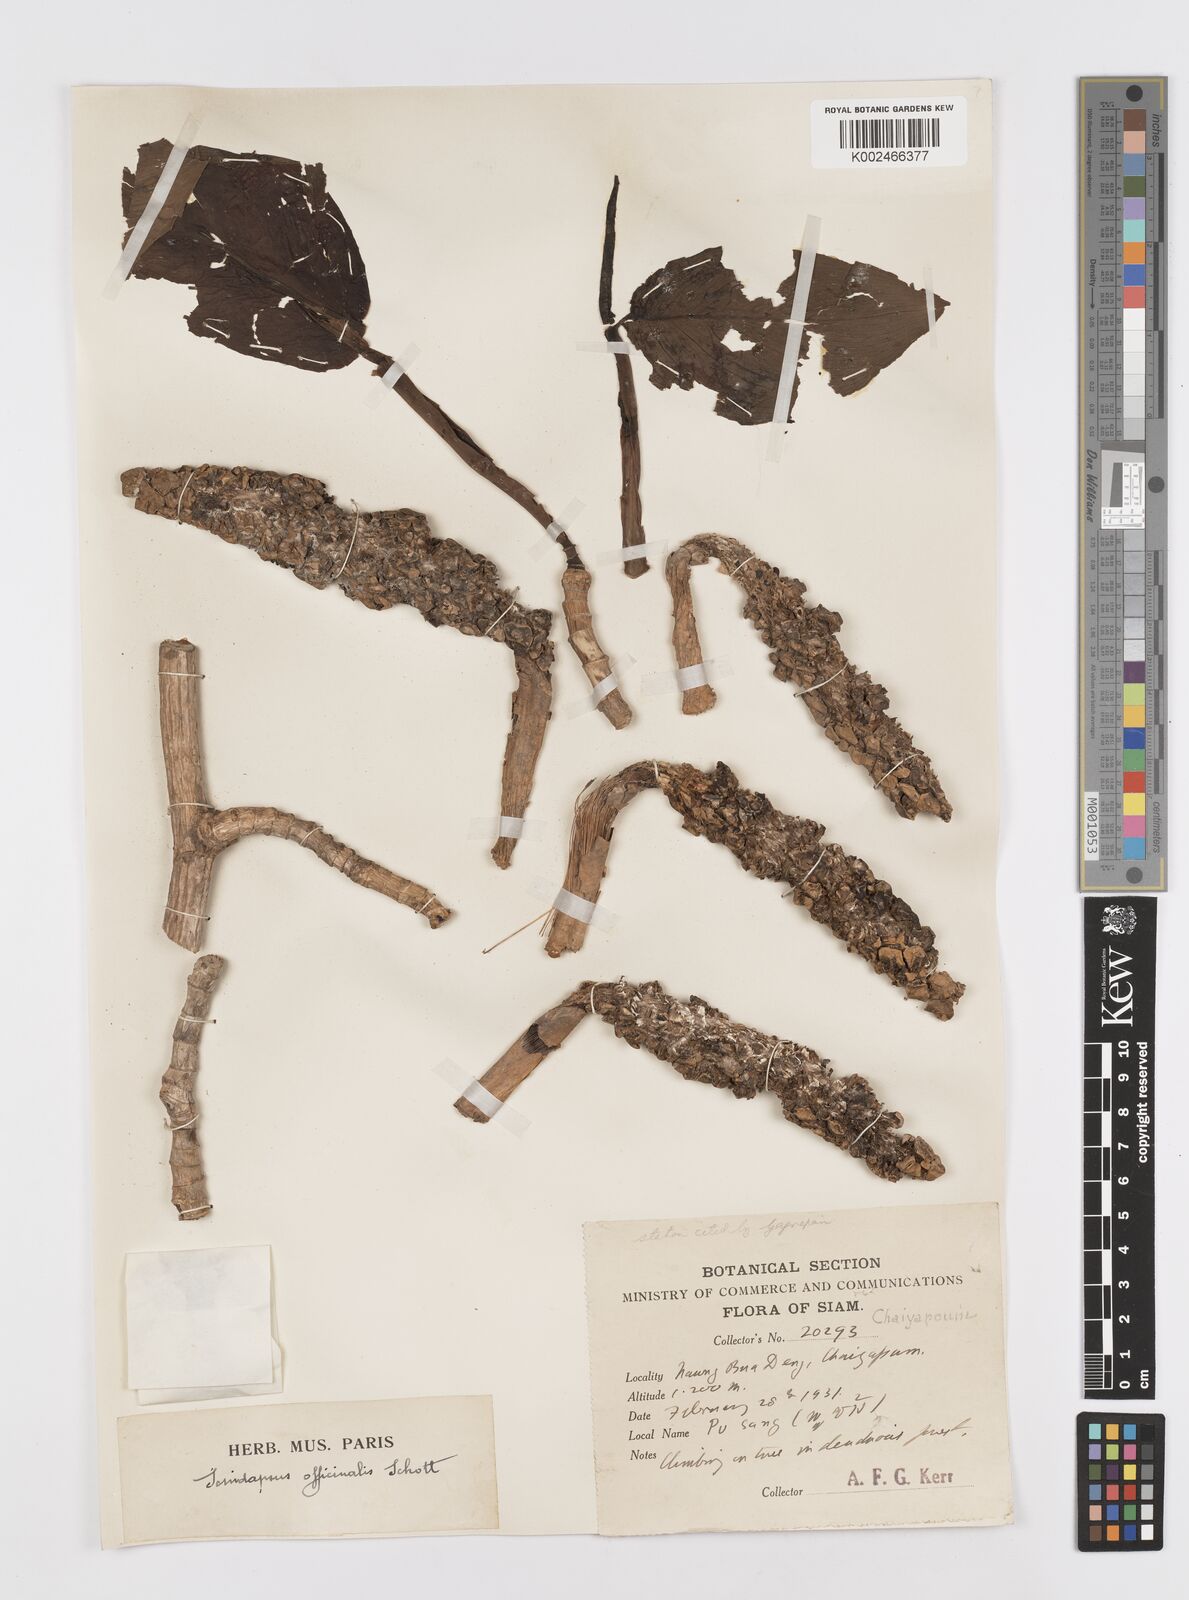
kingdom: Plantae
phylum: Tracheophyta
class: Liliopsida
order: Alismatales
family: Araceae
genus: Scindapsus
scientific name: Scindapsus officinalis
